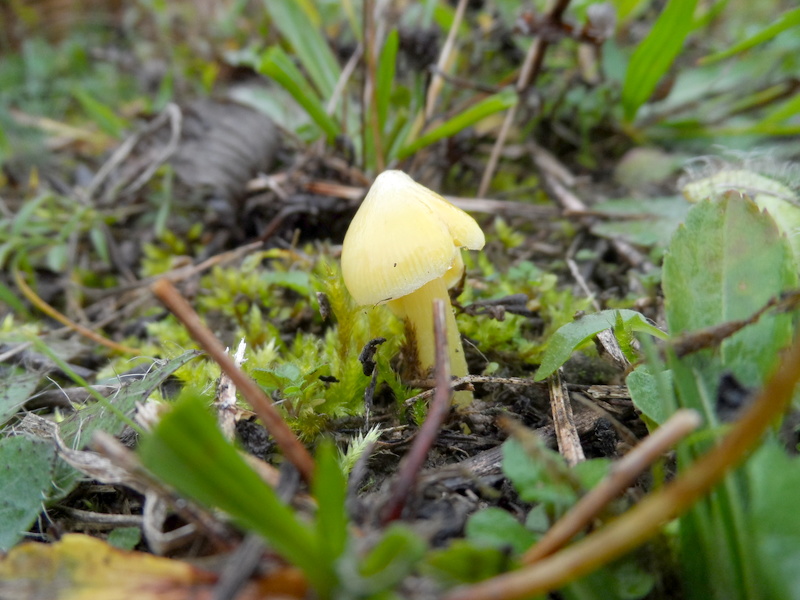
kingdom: Fungi
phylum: Basidiomycota
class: Agaricomycetes
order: Agaricales
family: Hygrophoraceae
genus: Hygrocybe
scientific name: Hygrocybe acutoconica
